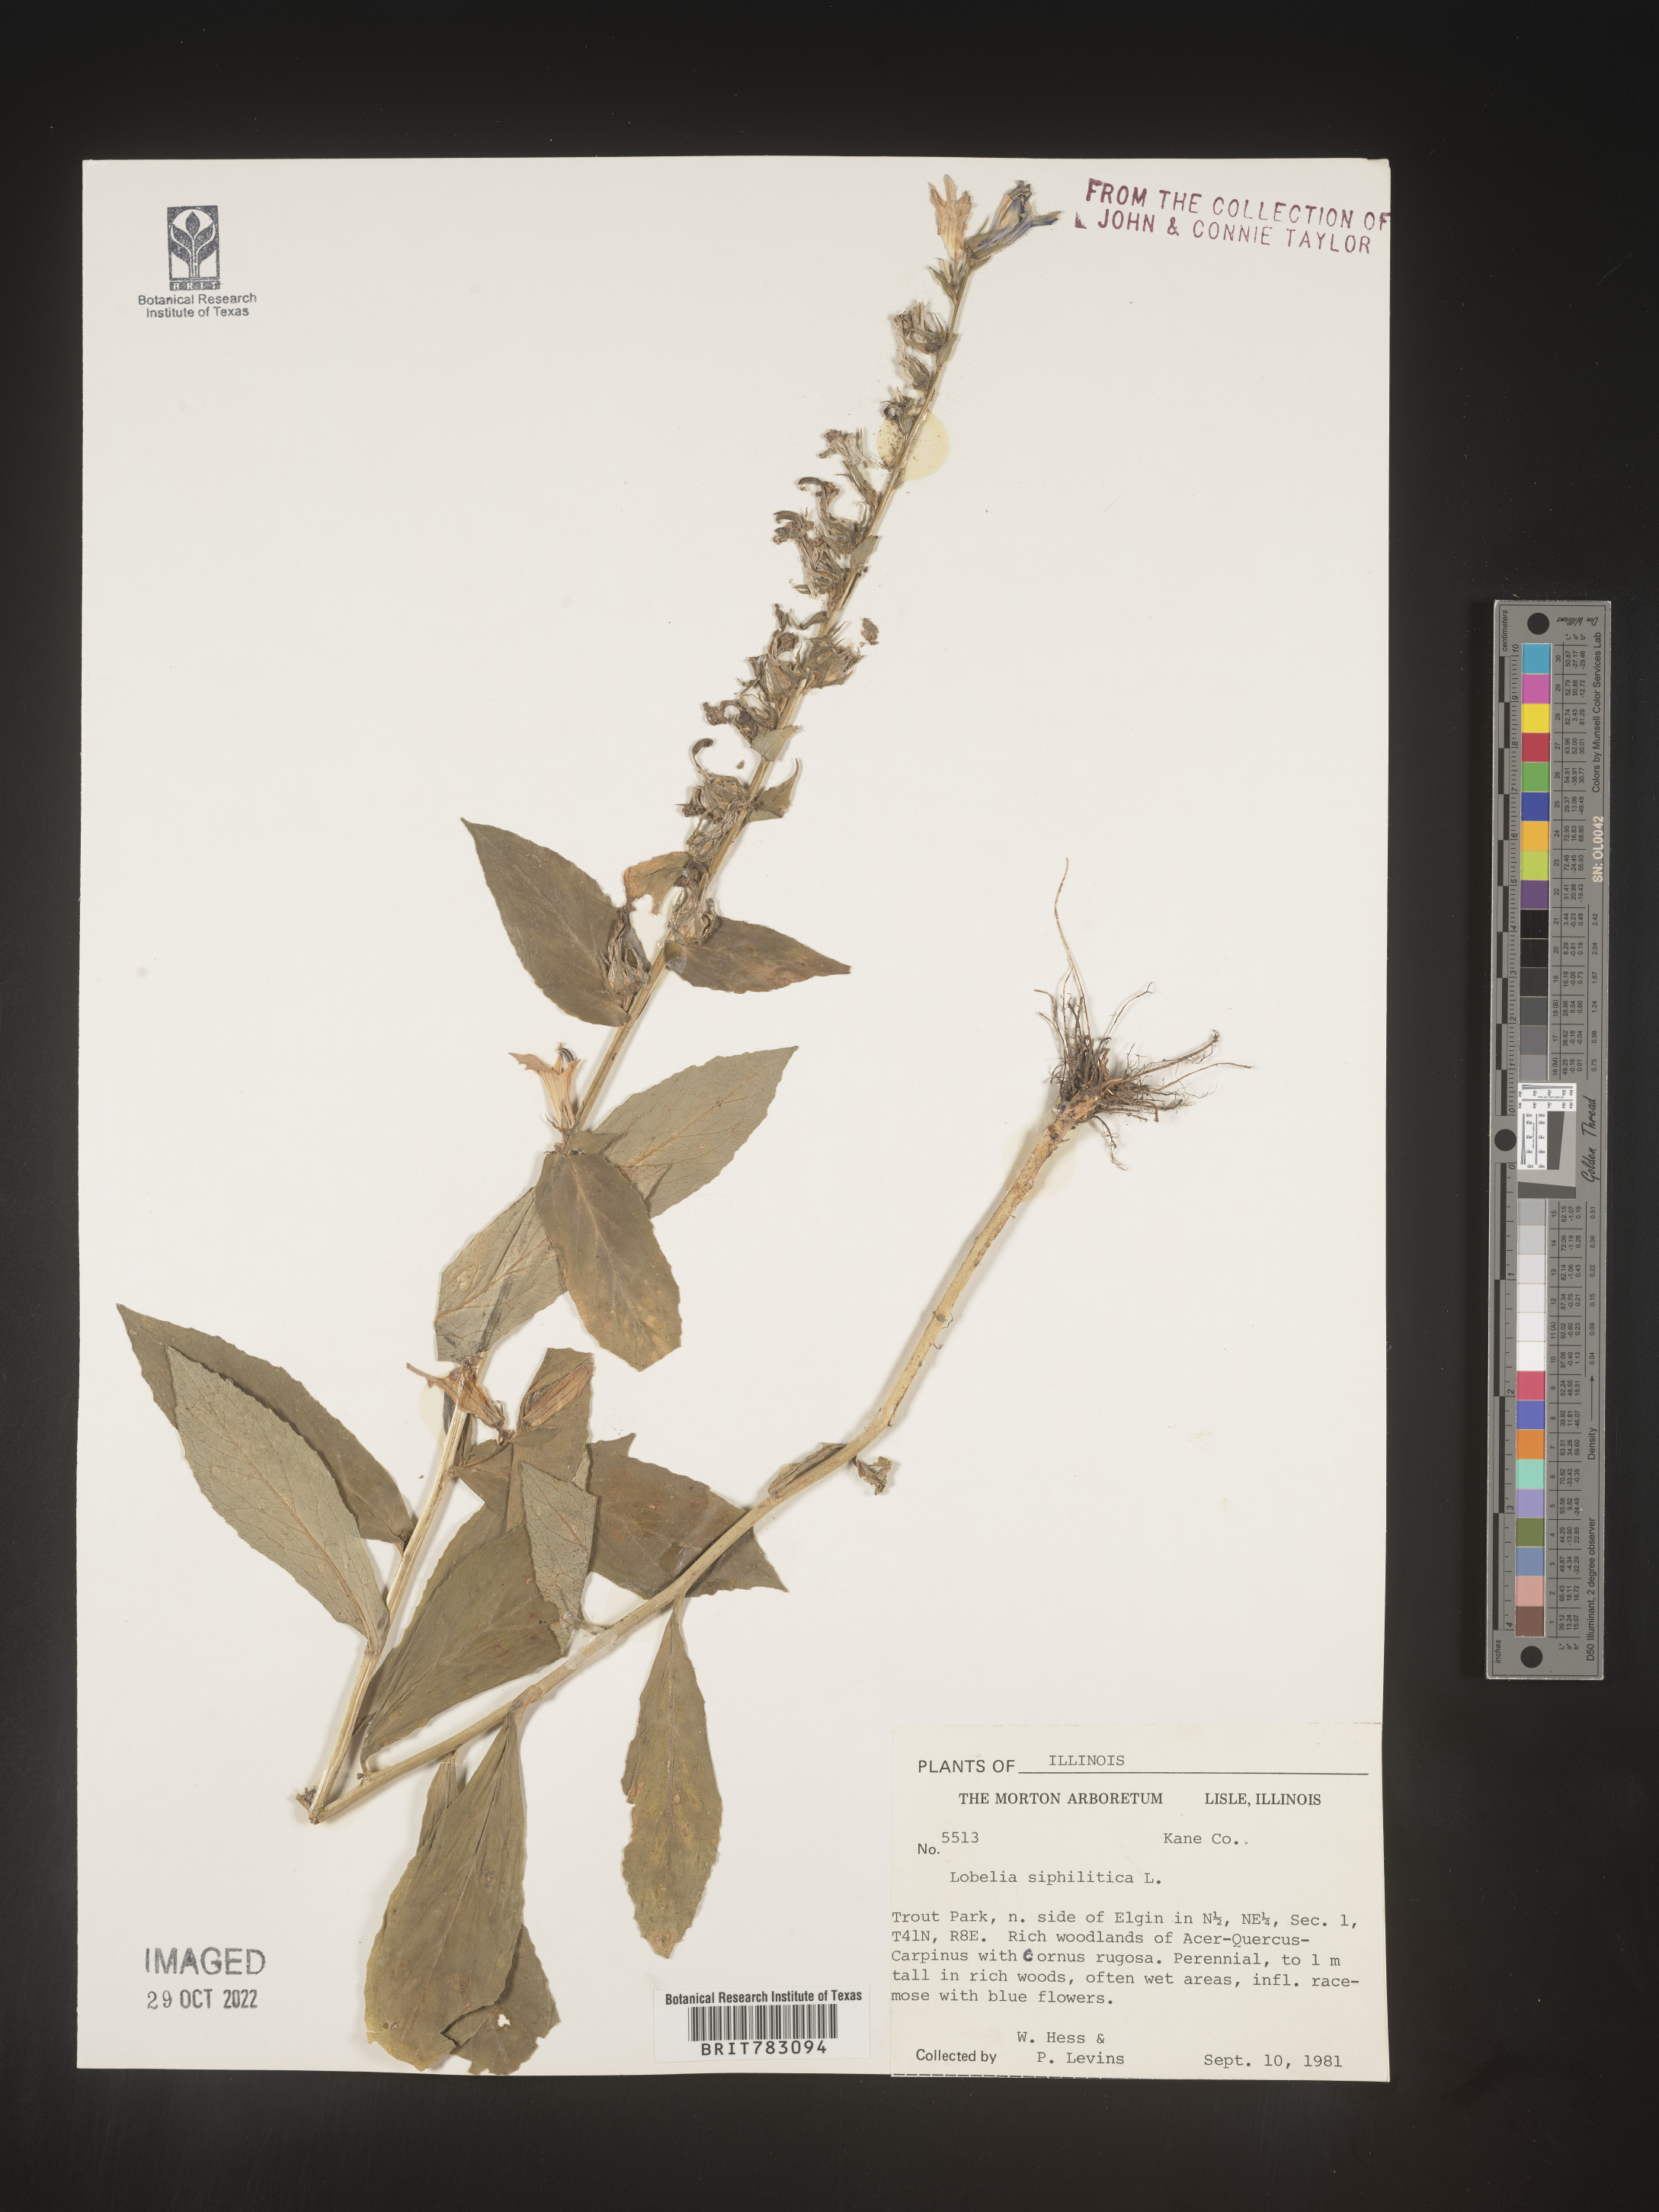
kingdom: Plantae
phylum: Tracheophyta
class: Magnoliopsida
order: Asterales
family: Campanulaceae
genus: Lobelia
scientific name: Lobelia siphilitica
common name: Great lobelia
